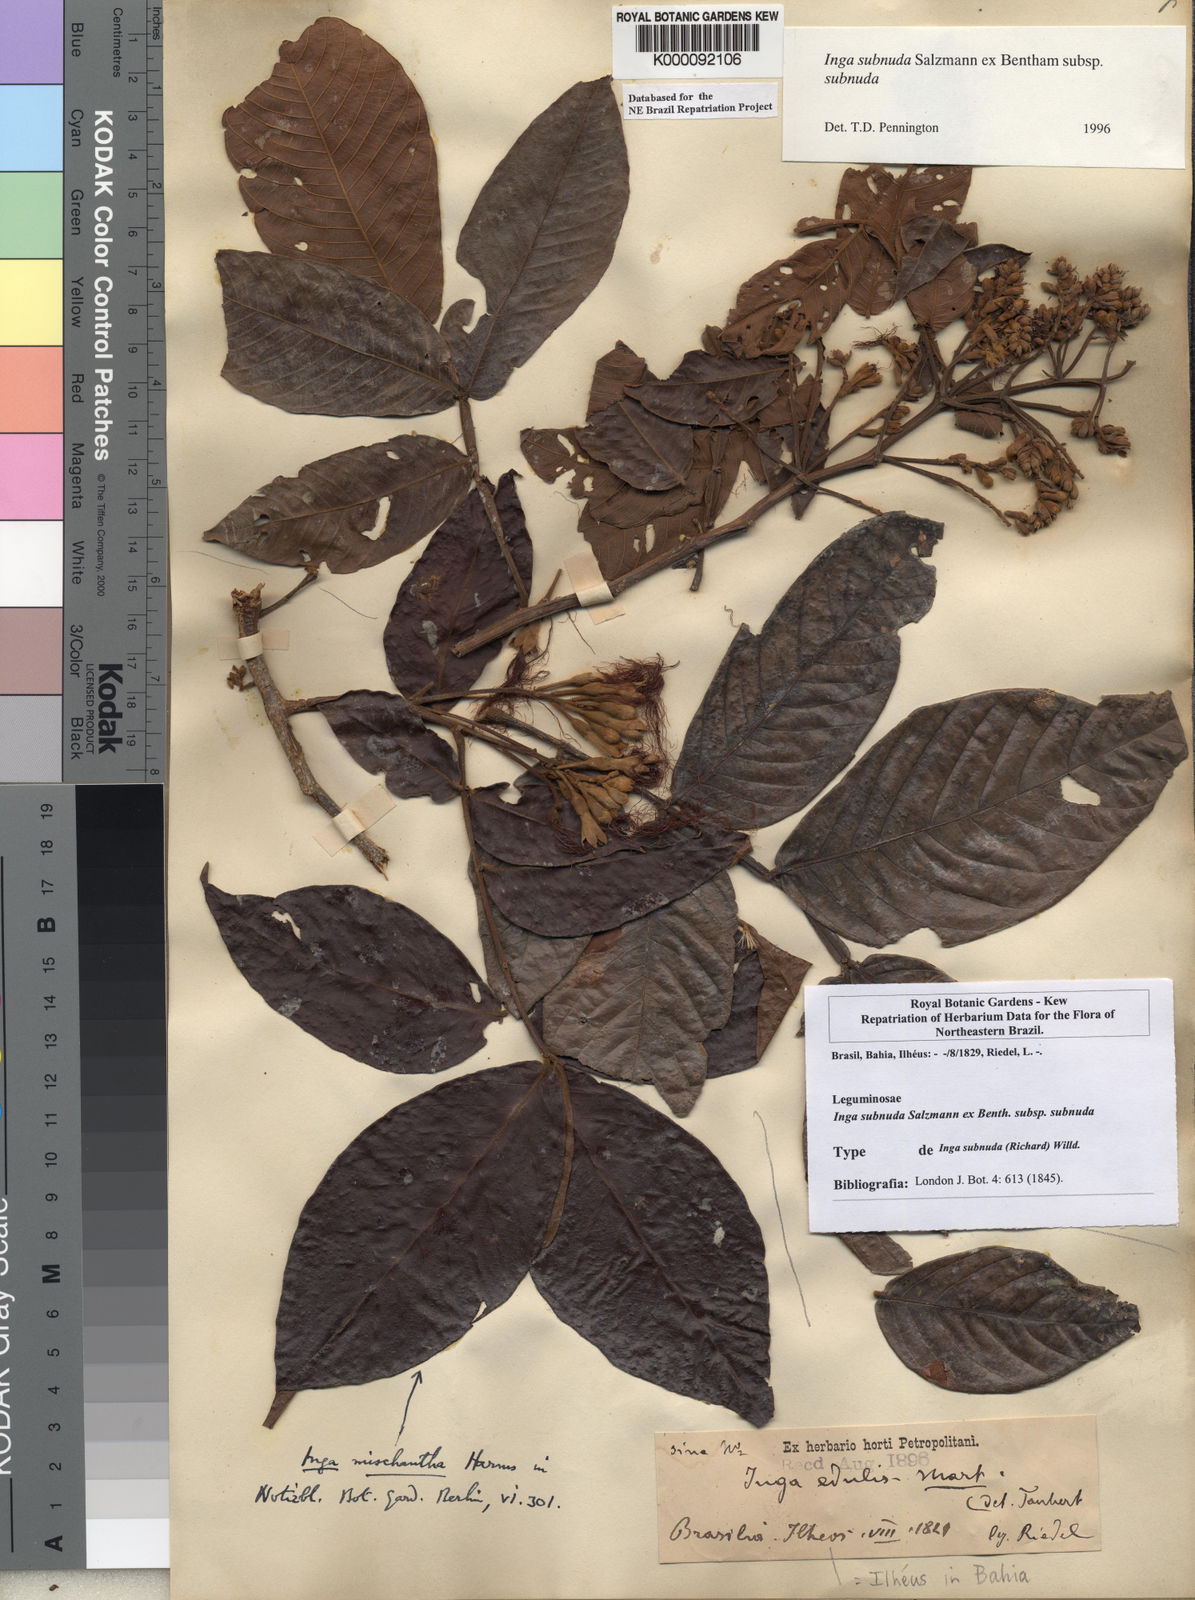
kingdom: Plantae
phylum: Tracheophyta
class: Magnoliopsida
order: Fabales
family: Fabaceae
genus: Inga
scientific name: Inga subnuda
